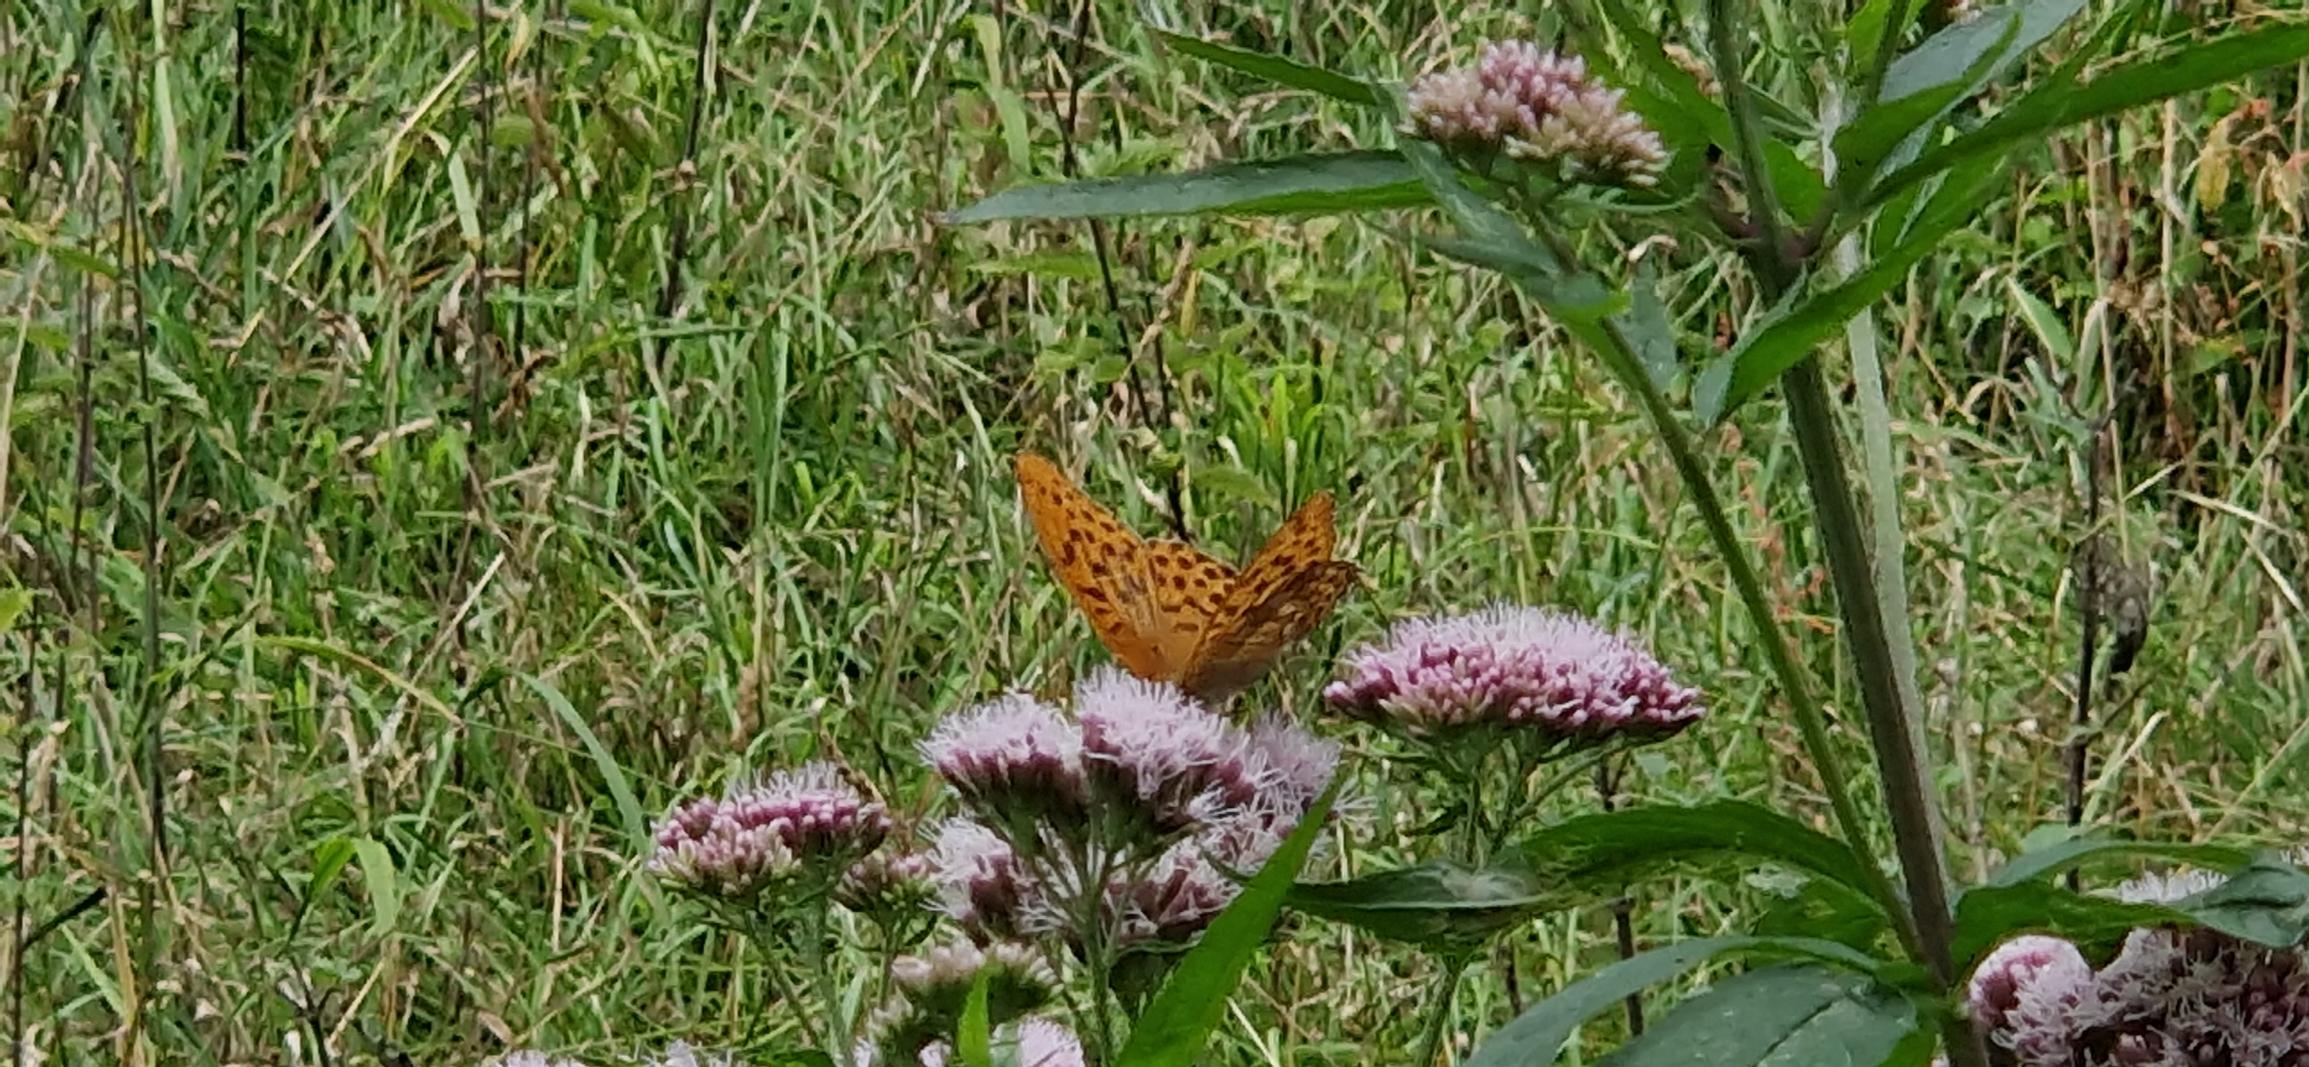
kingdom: Animalia
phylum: Arthropoda
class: Insecta
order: Lepidoptera
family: Nymphalidae
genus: Argynnis
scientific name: Argynnis paphia
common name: Kejserkåbe
